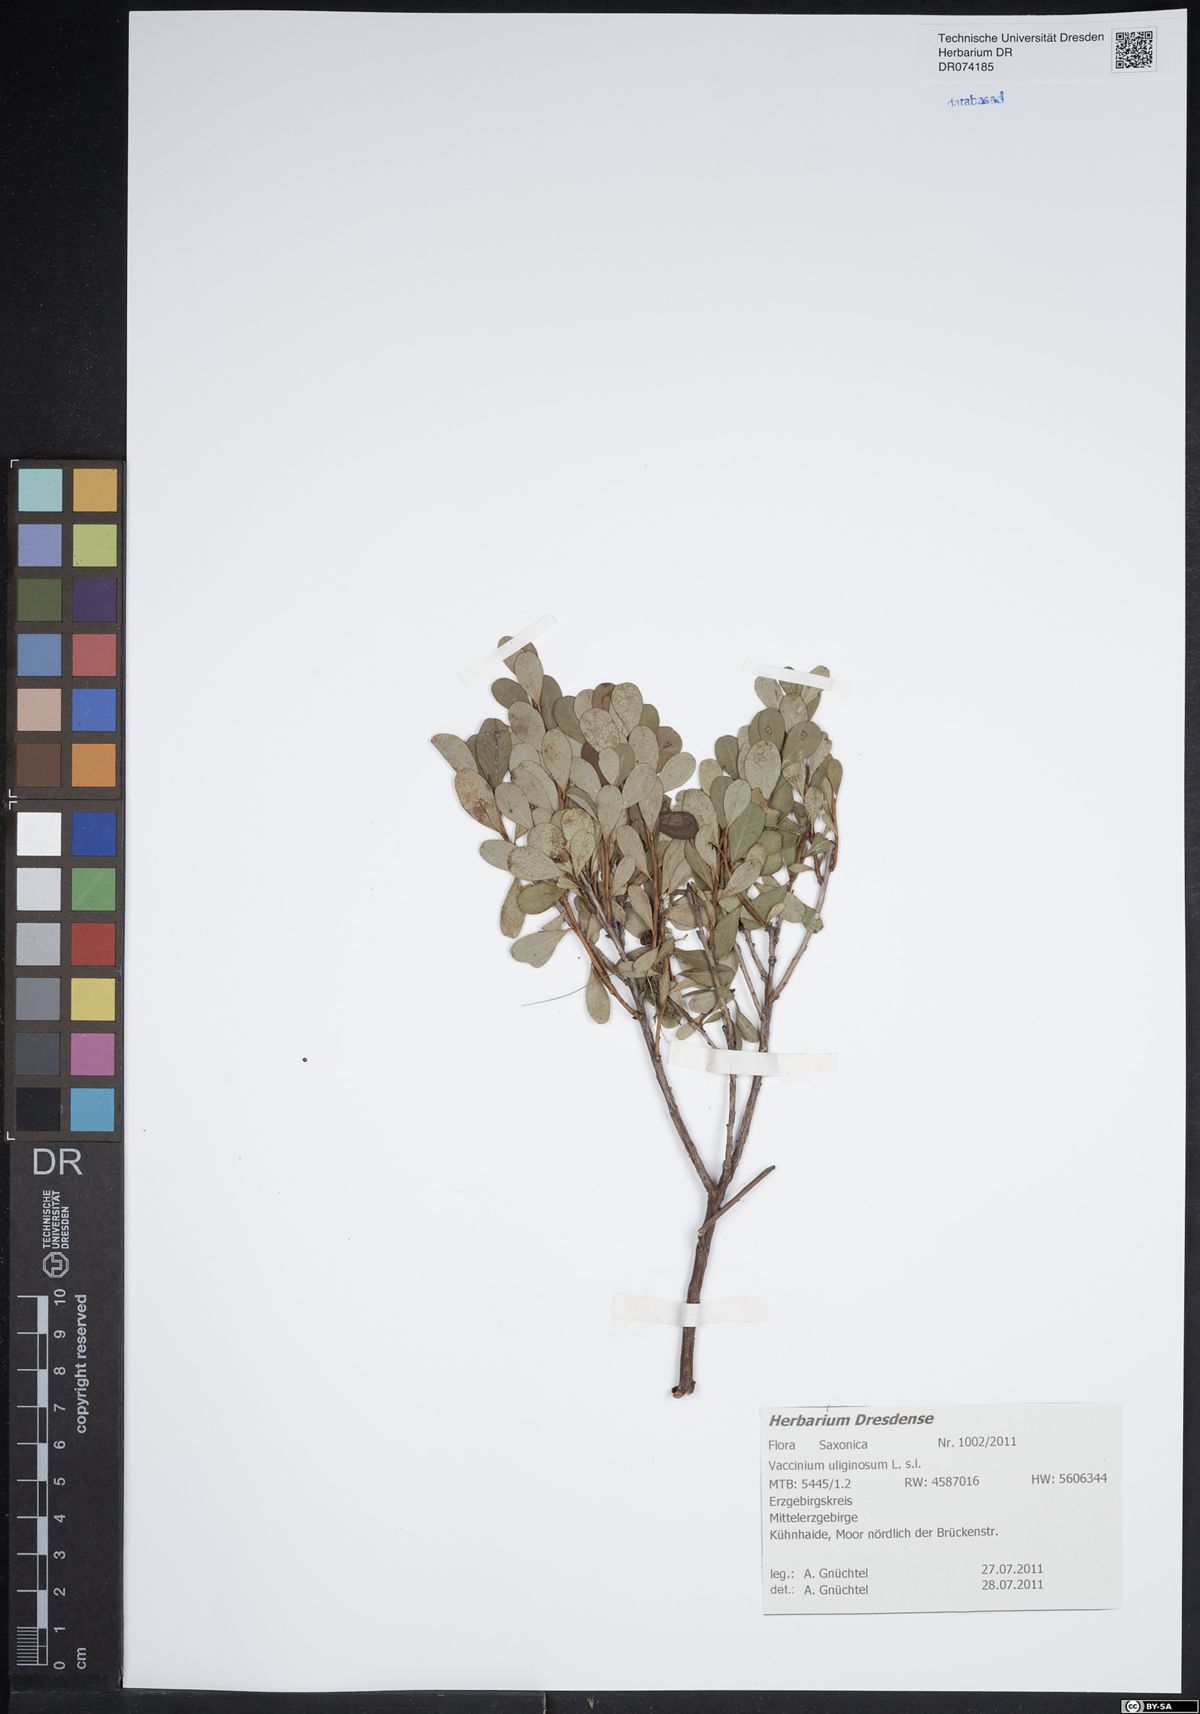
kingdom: Plantae
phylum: Tracheophyta
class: Magnoliopsida
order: Ericales
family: Ericaceae
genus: Vaccinium
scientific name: Vaccinium uliginosum
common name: Bog bilberry
